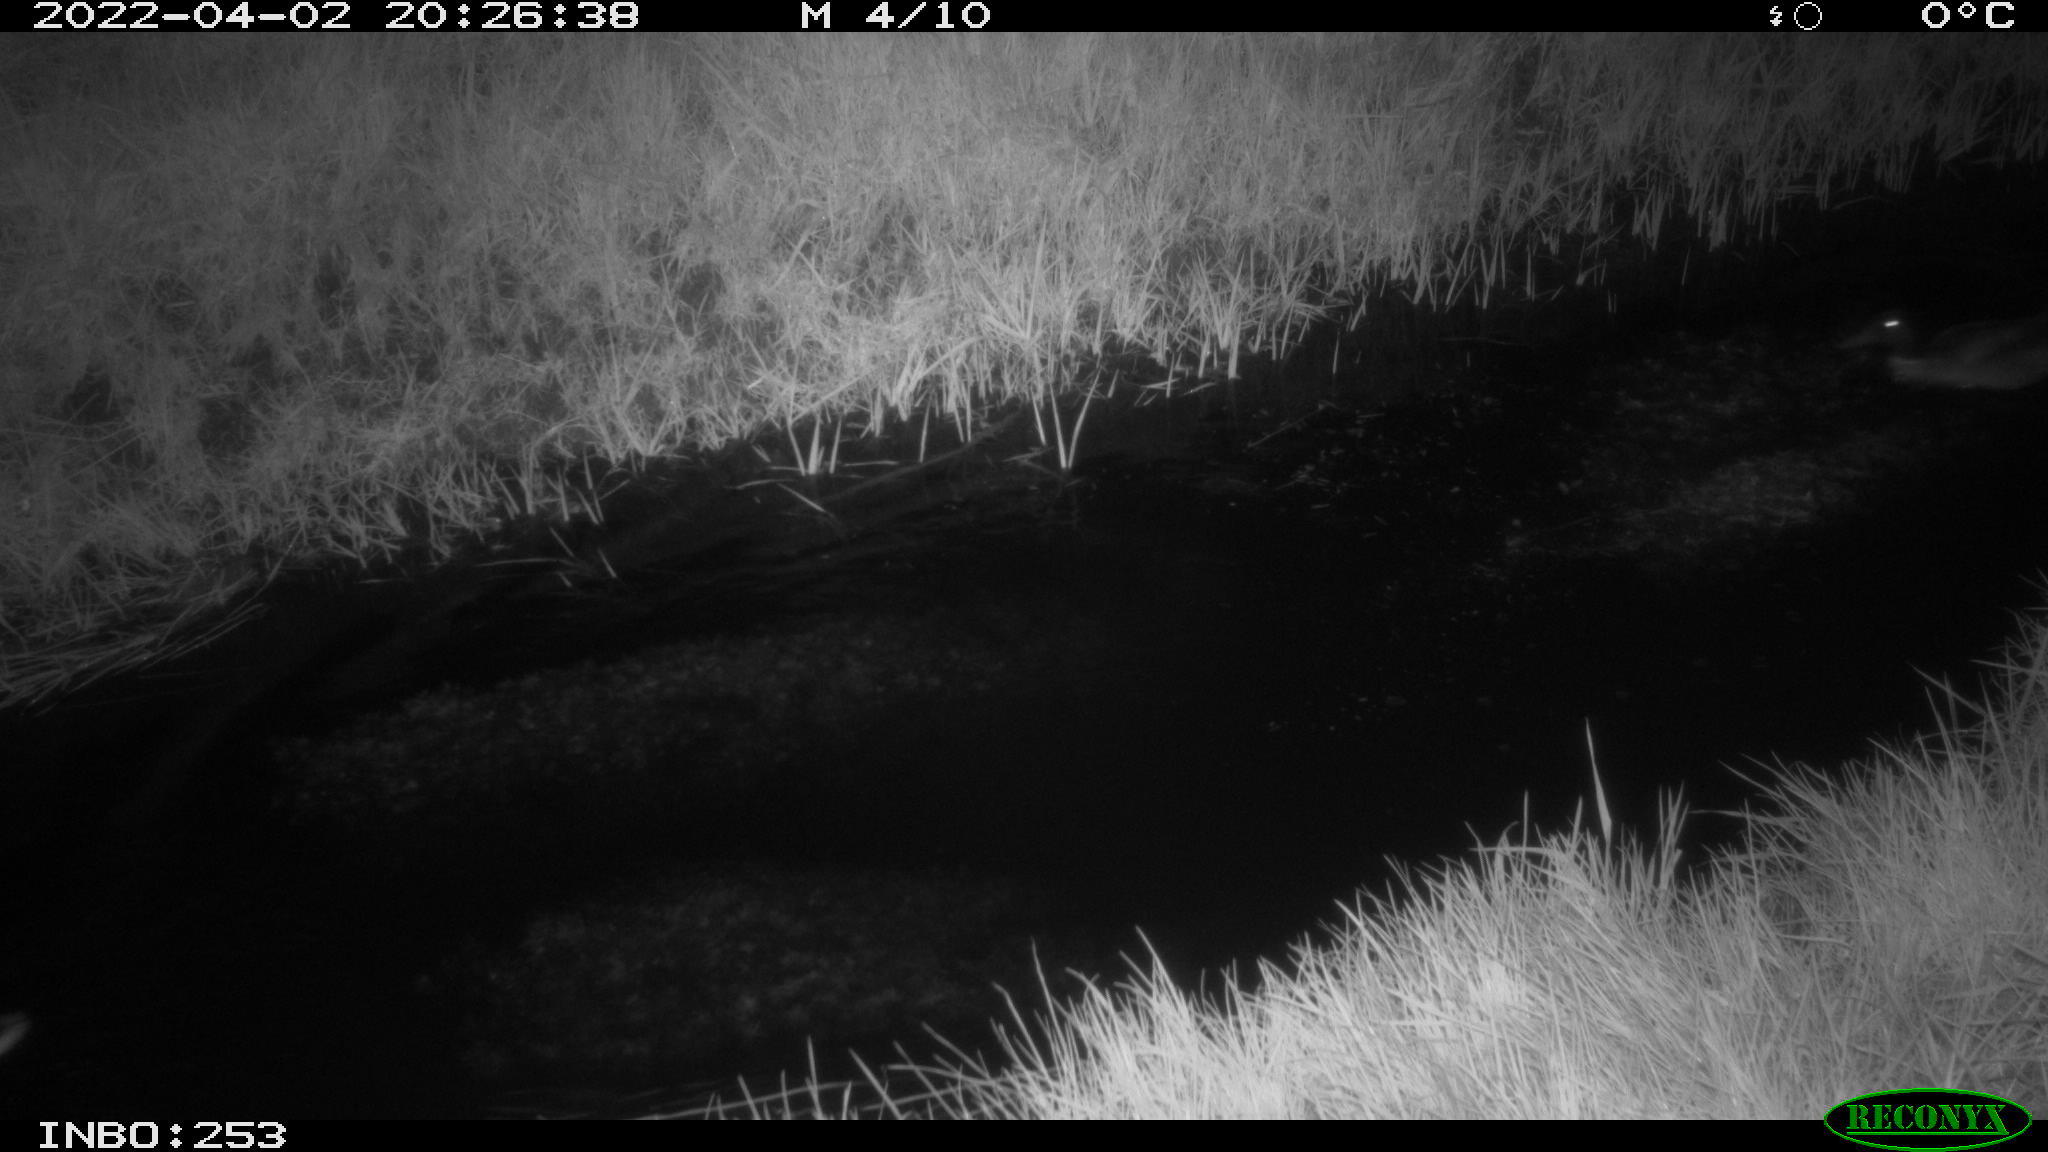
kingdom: Animalia
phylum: Chordata
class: Aves
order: Anseriformes
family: Anatidae
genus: Anas
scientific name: Anas platyrhynchos
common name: Mallard
